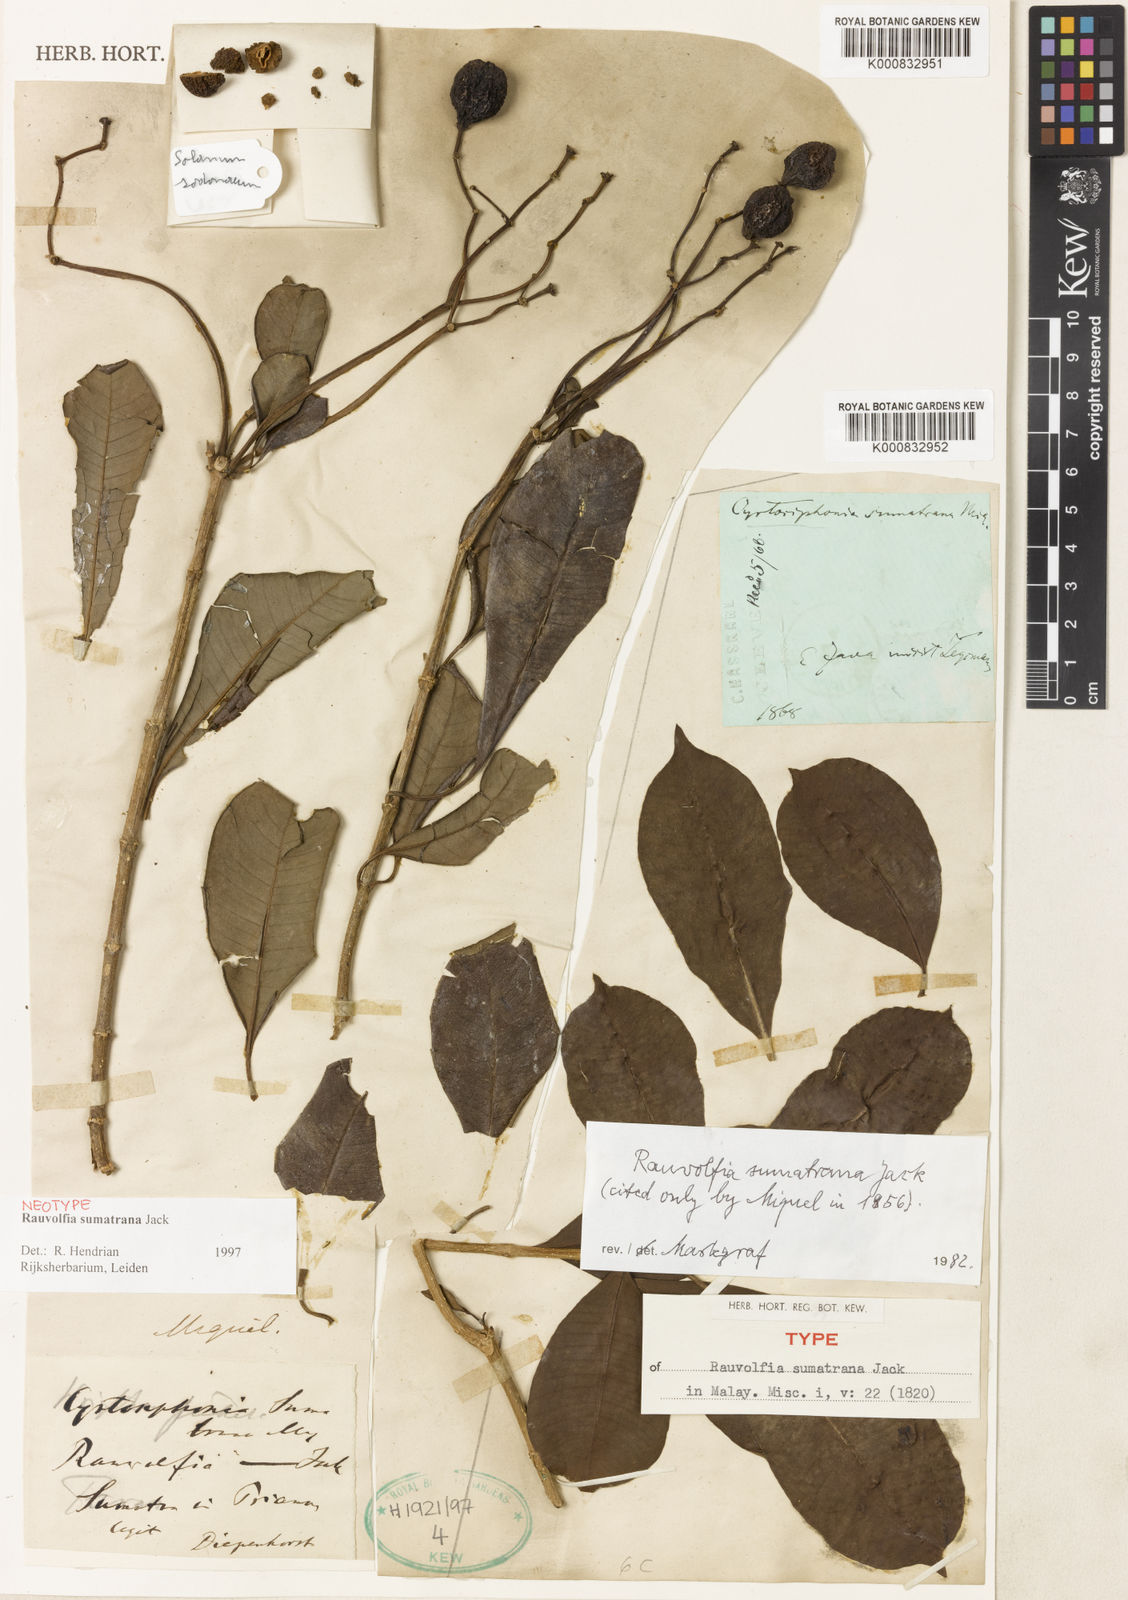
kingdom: Plantae
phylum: Tracheophyta
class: Magnoliopsida
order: Gentianales
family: Apocynaceae
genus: Rauvolfia
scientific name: Rauvolfia sumatrana
